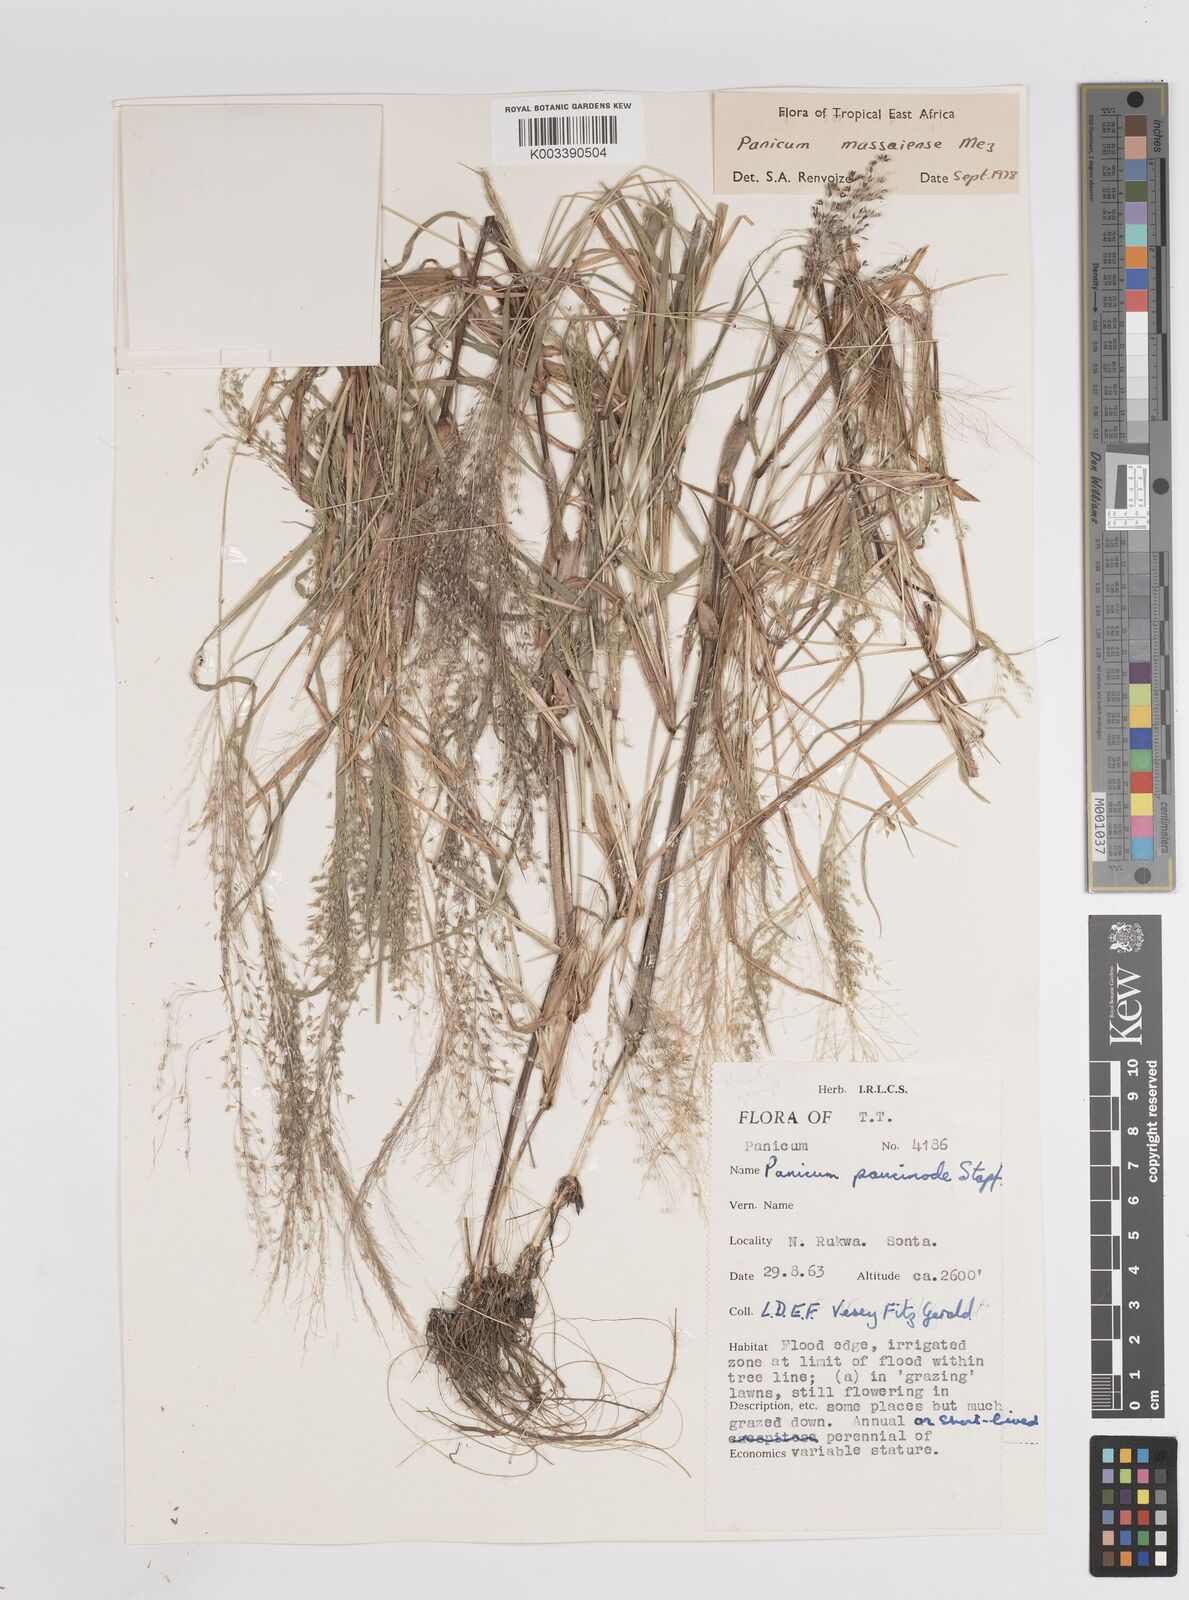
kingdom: Plantae
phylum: Tracheophyta
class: Liliopsida
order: Poales
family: Poaceae
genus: Panicum
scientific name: Panicum massaiense
